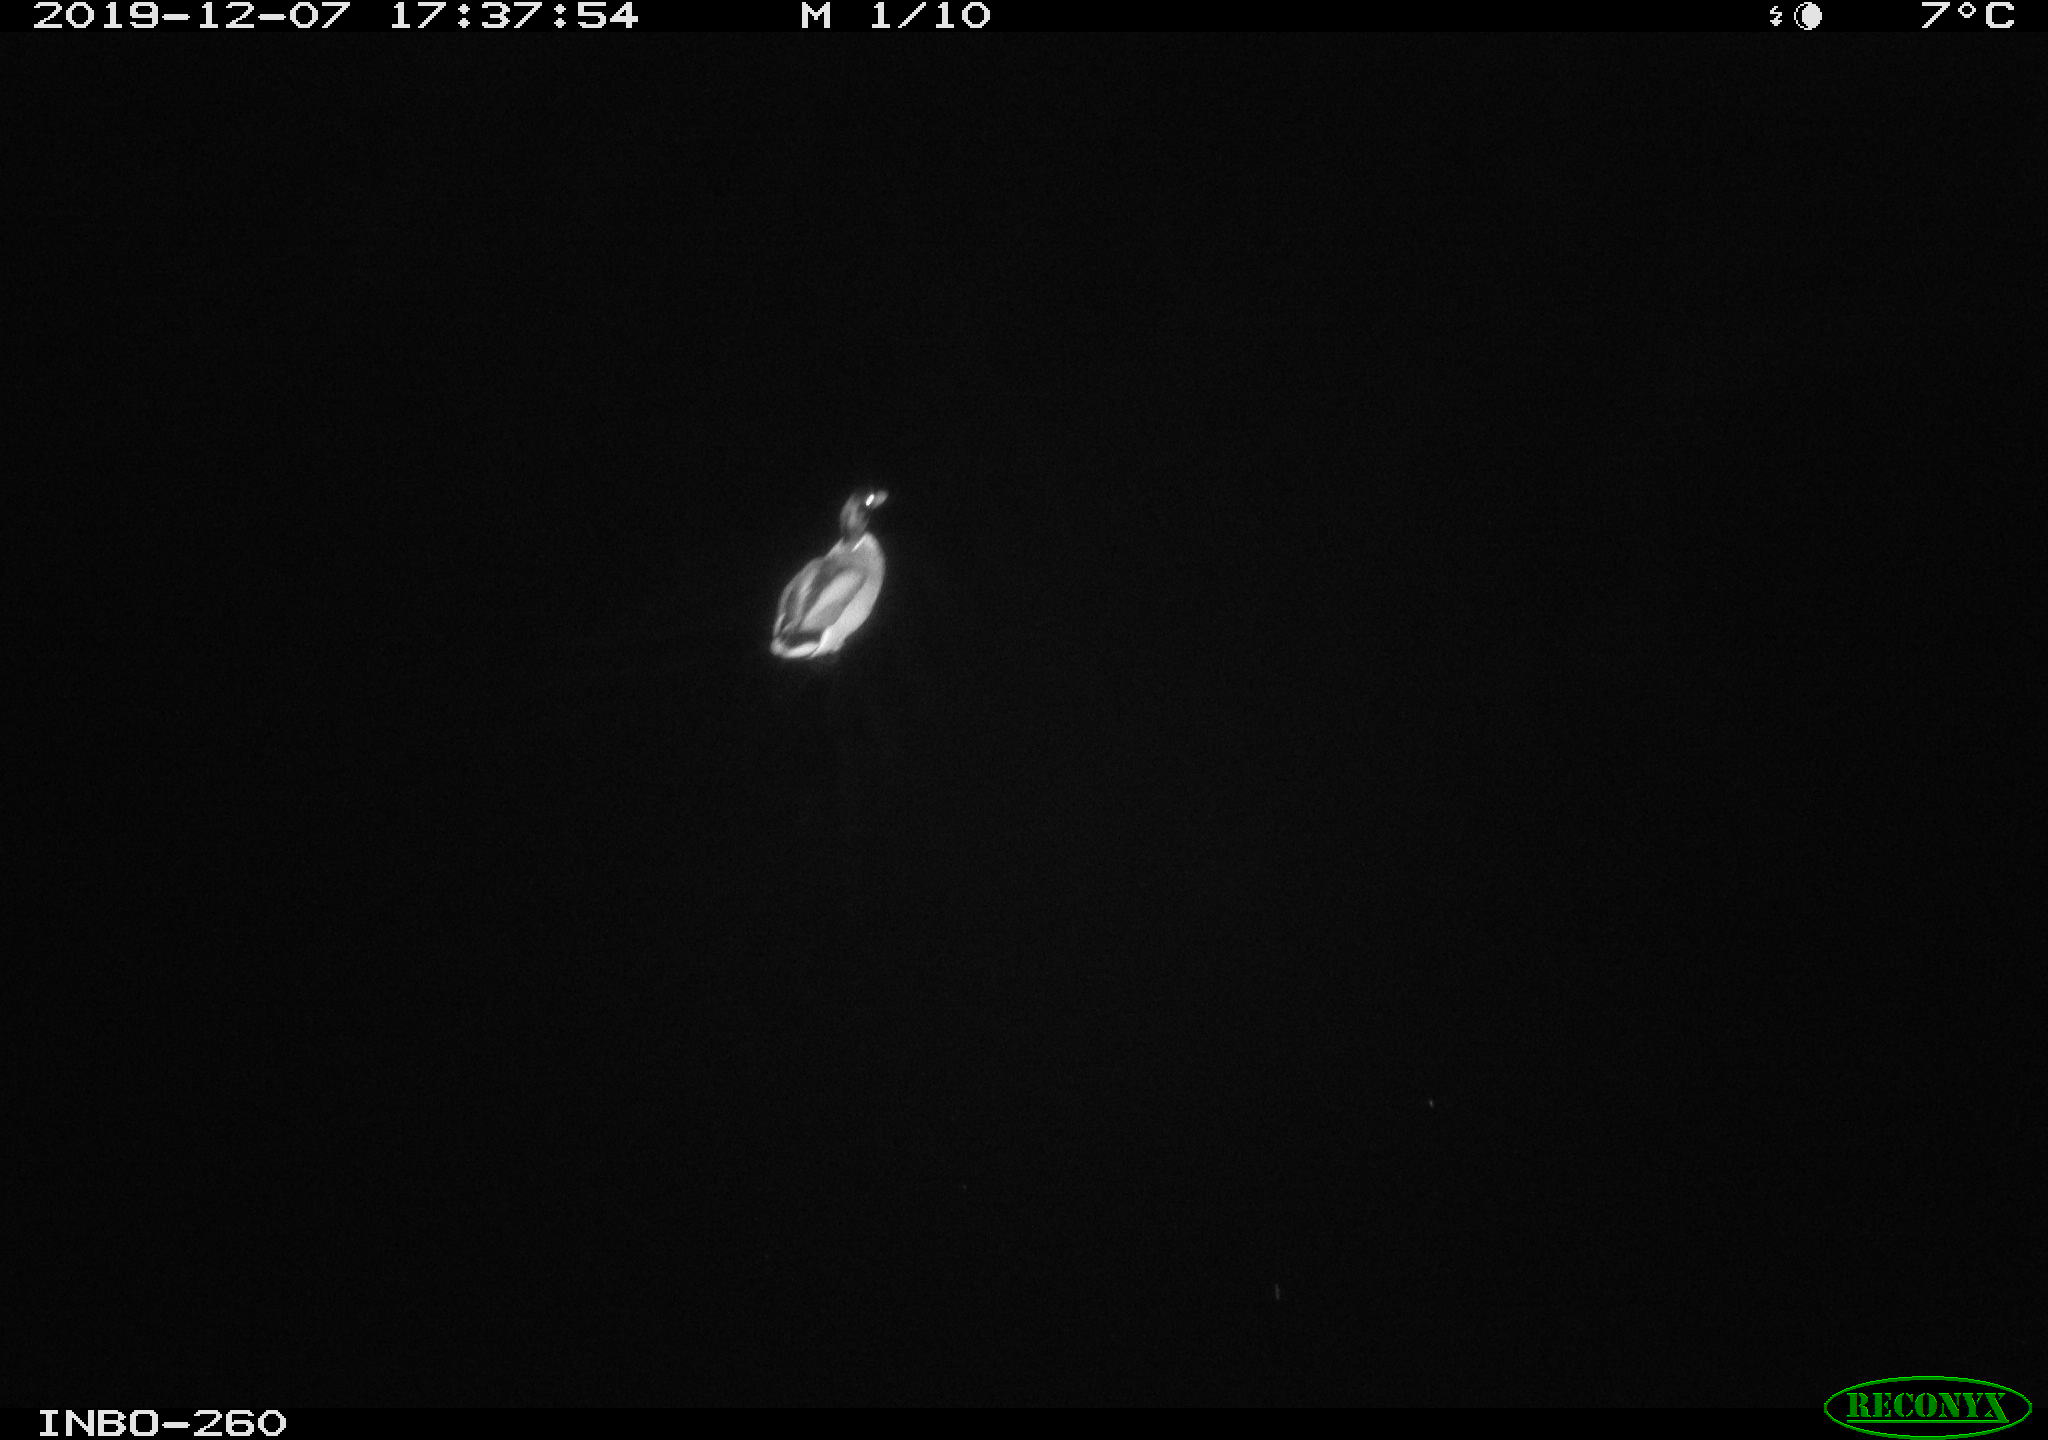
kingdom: Animalia
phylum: Chordata
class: Aves
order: Anseriformes
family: Anatidae
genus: Anas
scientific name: Anas platyrhynchos
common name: Mallard
